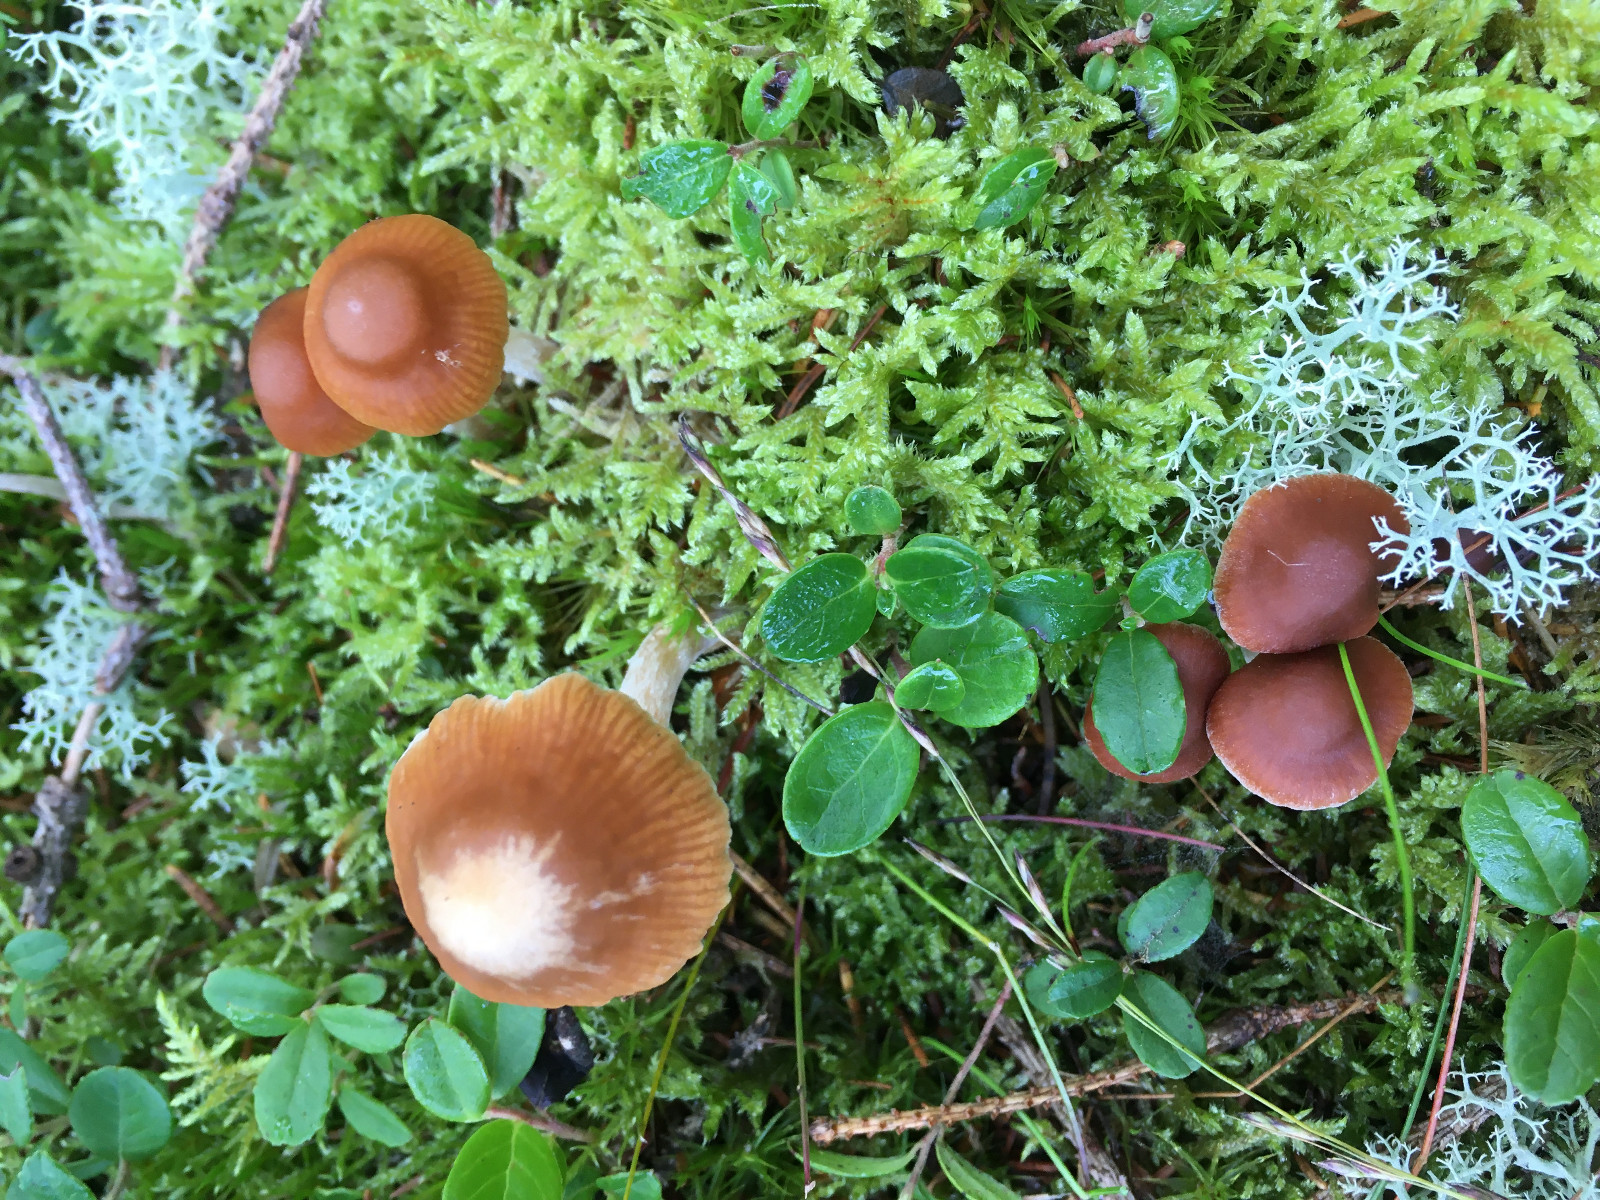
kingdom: Fungi
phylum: Basidiomycota
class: Agaricomycetes
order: Agaricales
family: Cortinariaceae
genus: Cortinarius
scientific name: Cortinarius mammillatus
